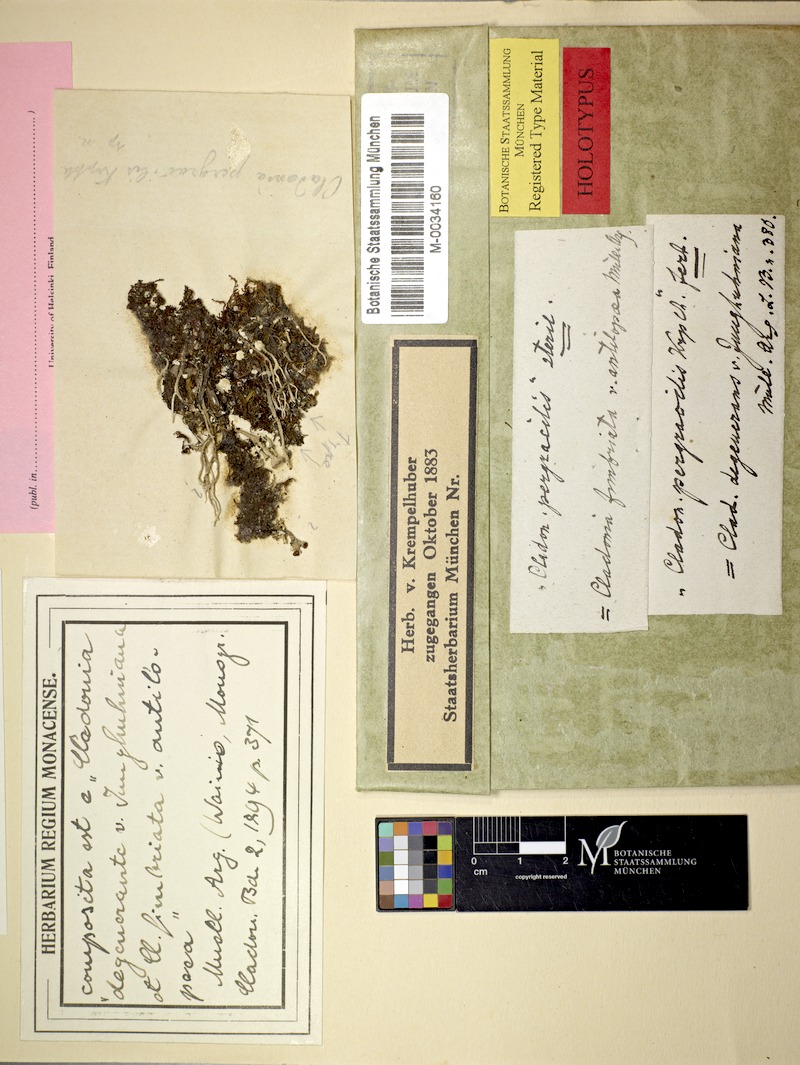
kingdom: Fungi
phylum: Ascomycota
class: Lecanoromycetes
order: Lecanorales
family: Cladoniaceae
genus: Cladonia
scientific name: Cladonia ochrochlora
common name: Smooth-footed powderhorn
